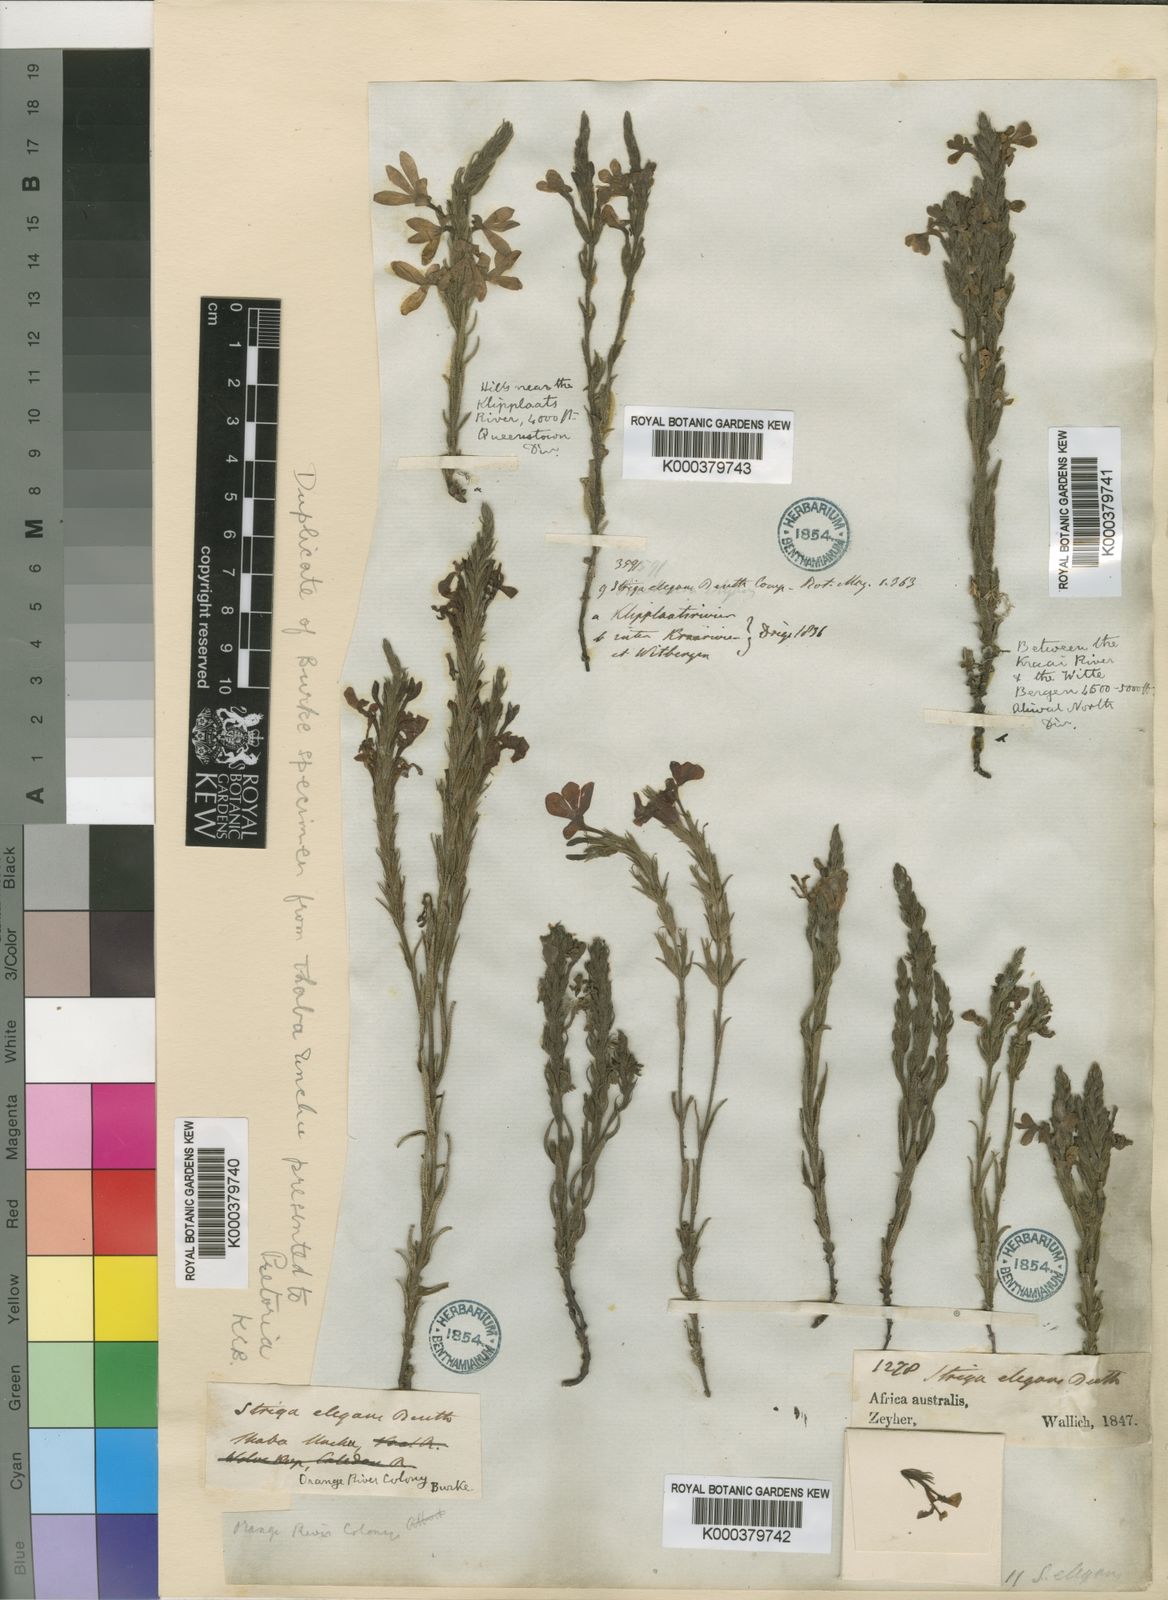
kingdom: Plantae
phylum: Tracheophyta
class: Magnoliopsida
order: Lamiales
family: Orobanchaceae
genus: Striga
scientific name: Striga elegans
